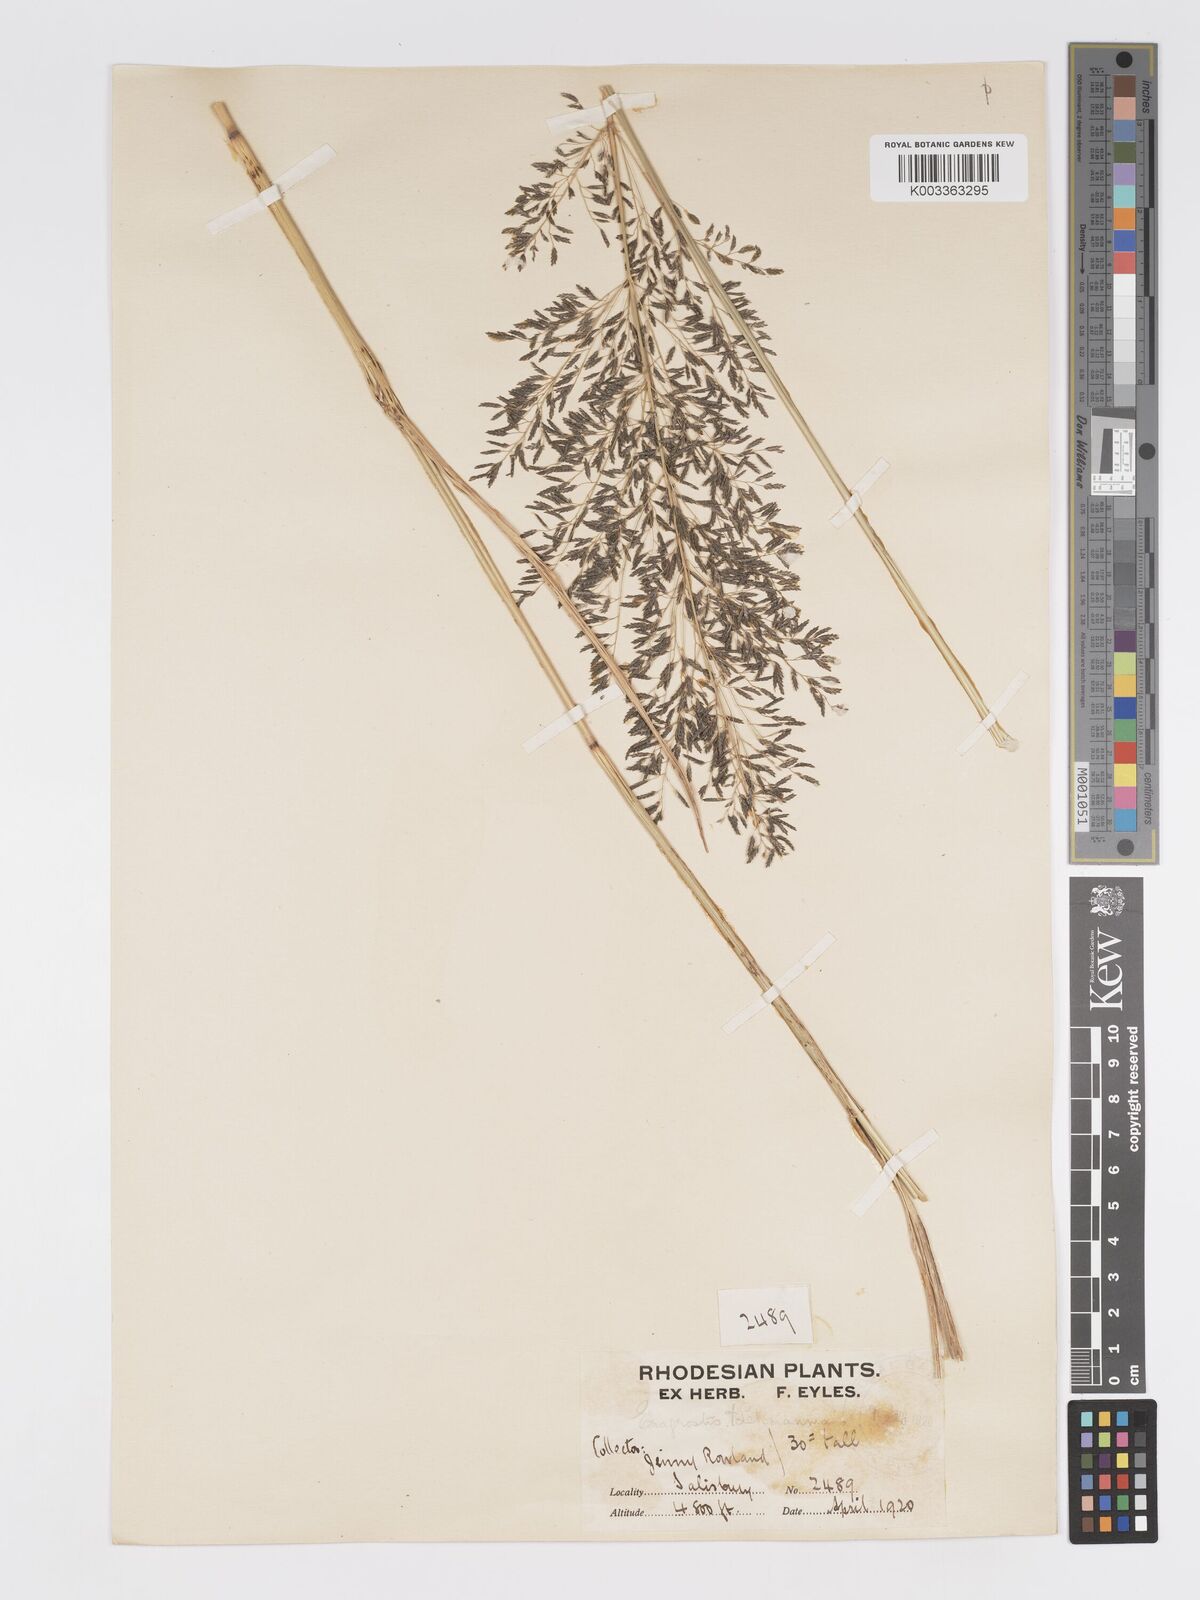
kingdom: Plantae
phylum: Tracheophyta
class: Liliopsida
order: Poales
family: Poaceae
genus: Eragrostis
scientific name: Eragrostis curvula
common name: African love-grass
